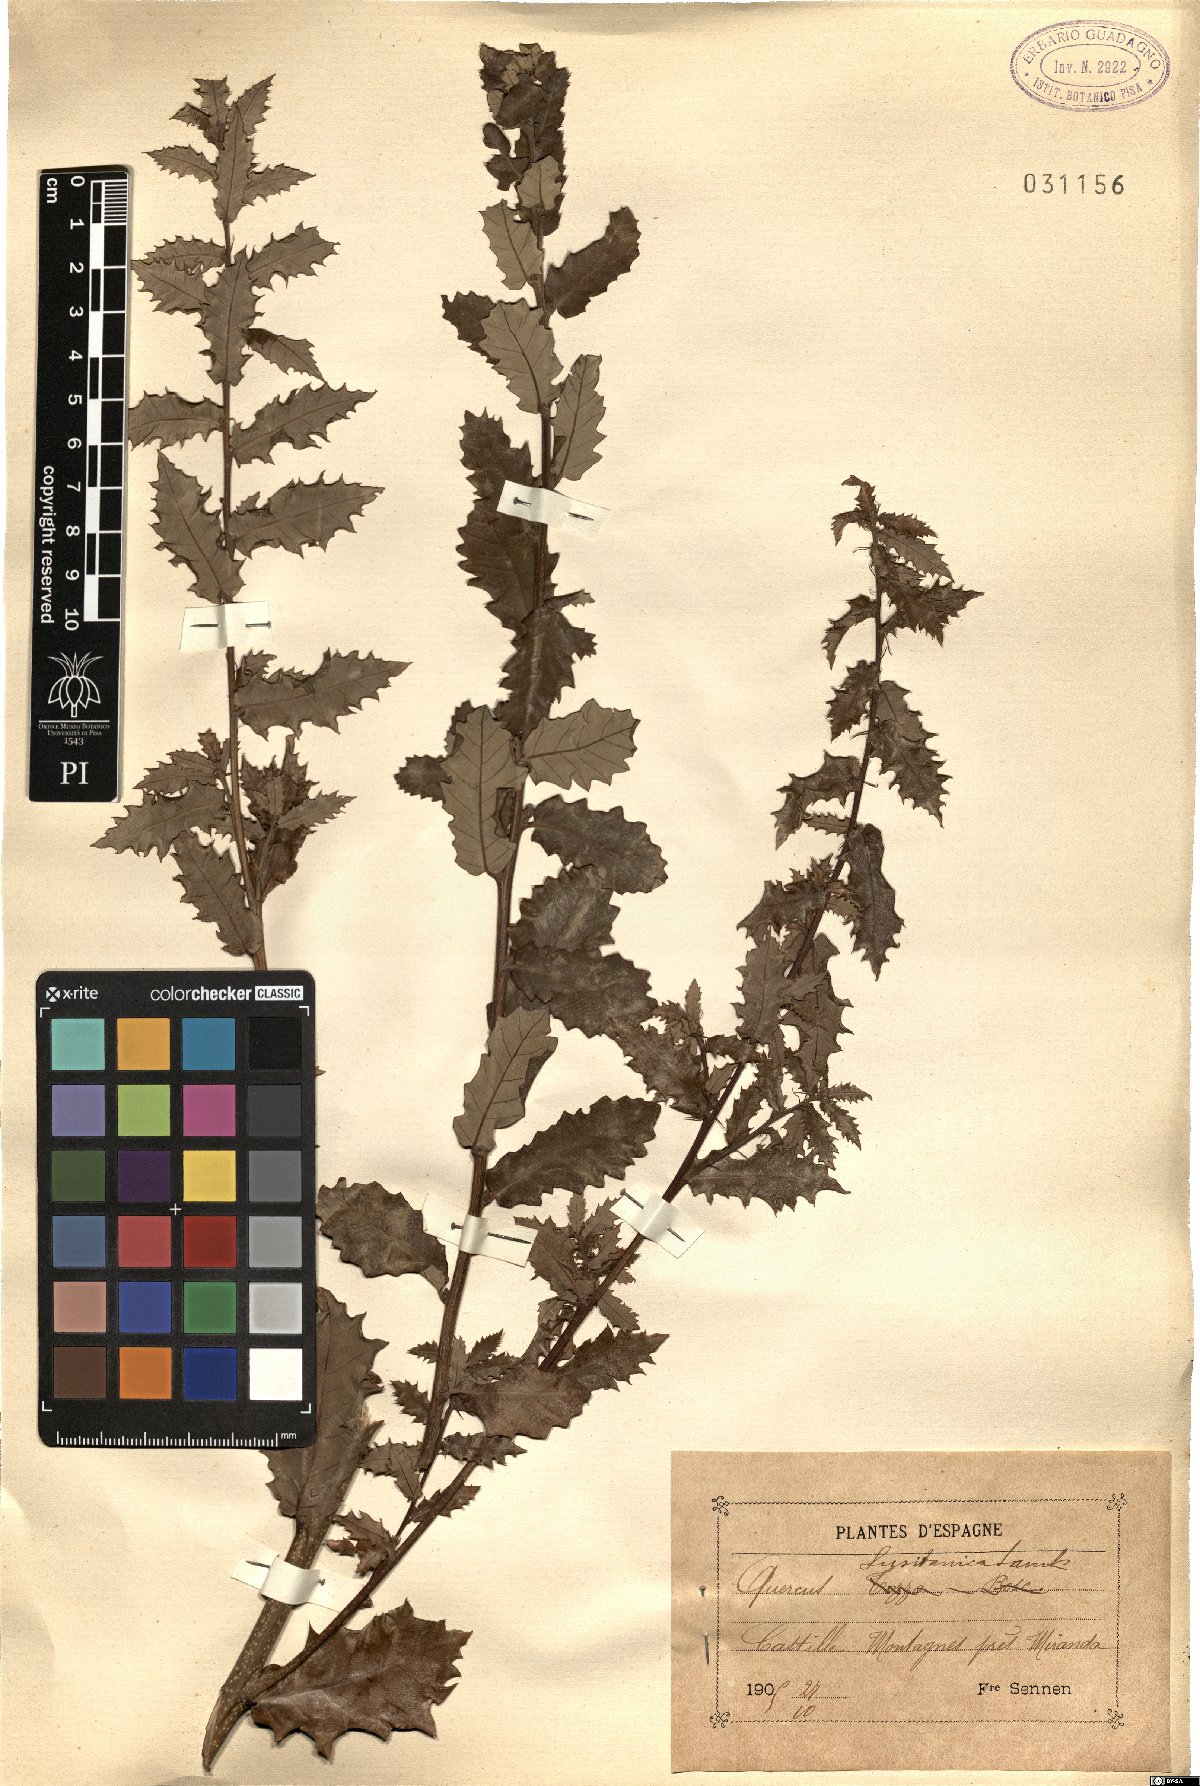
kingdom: Plantae
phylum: Tracheophyta
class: Magnoliopsida
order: Fagales
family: Fagaceae
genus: Quercus
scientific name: Quercus lusitanica
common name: Scrub gall oak
